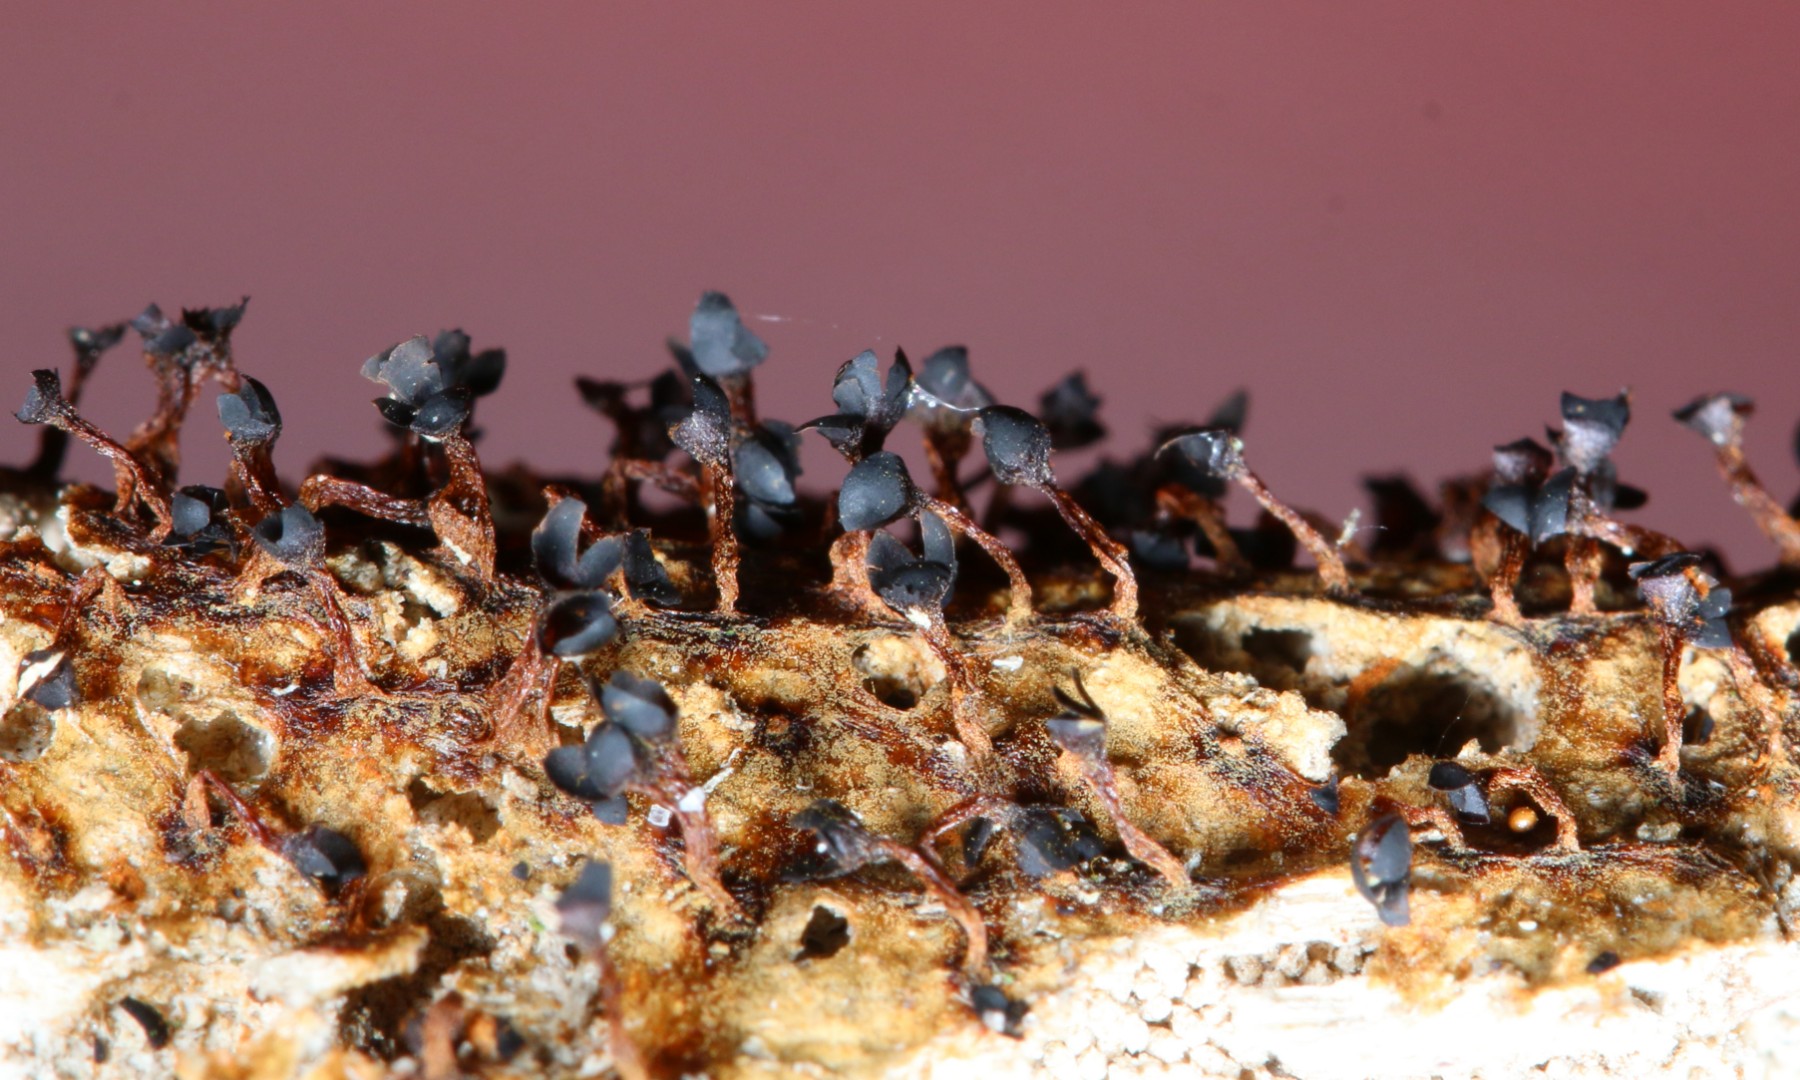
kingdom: Protozoa
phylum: Mycetozoa
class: Myxomycetes
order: Trichiales
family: Trichiaceae
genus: Metatrichia
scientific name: Metatrichia floriformis
